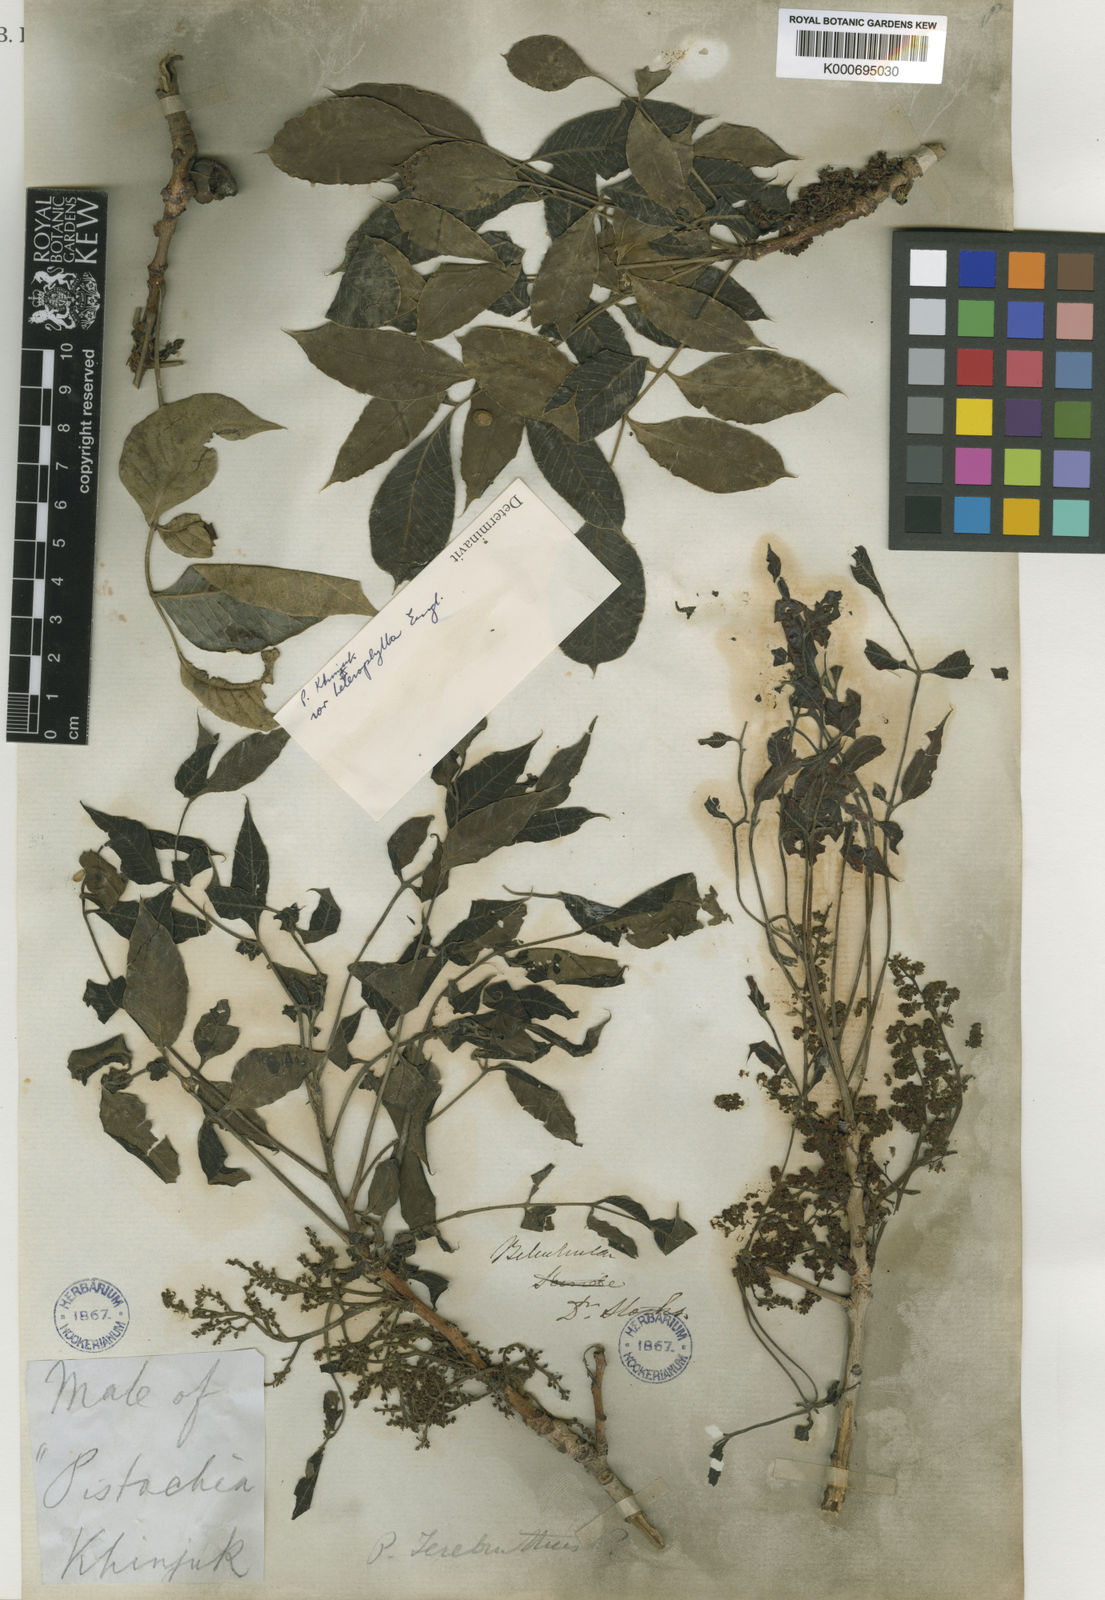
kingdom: Plantae
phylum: Tracheophyta
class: Magnoliopsida
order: Asterales
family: Asteraceae
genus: Praxelis
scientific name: Praxelis clematidea
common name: Praxelis
